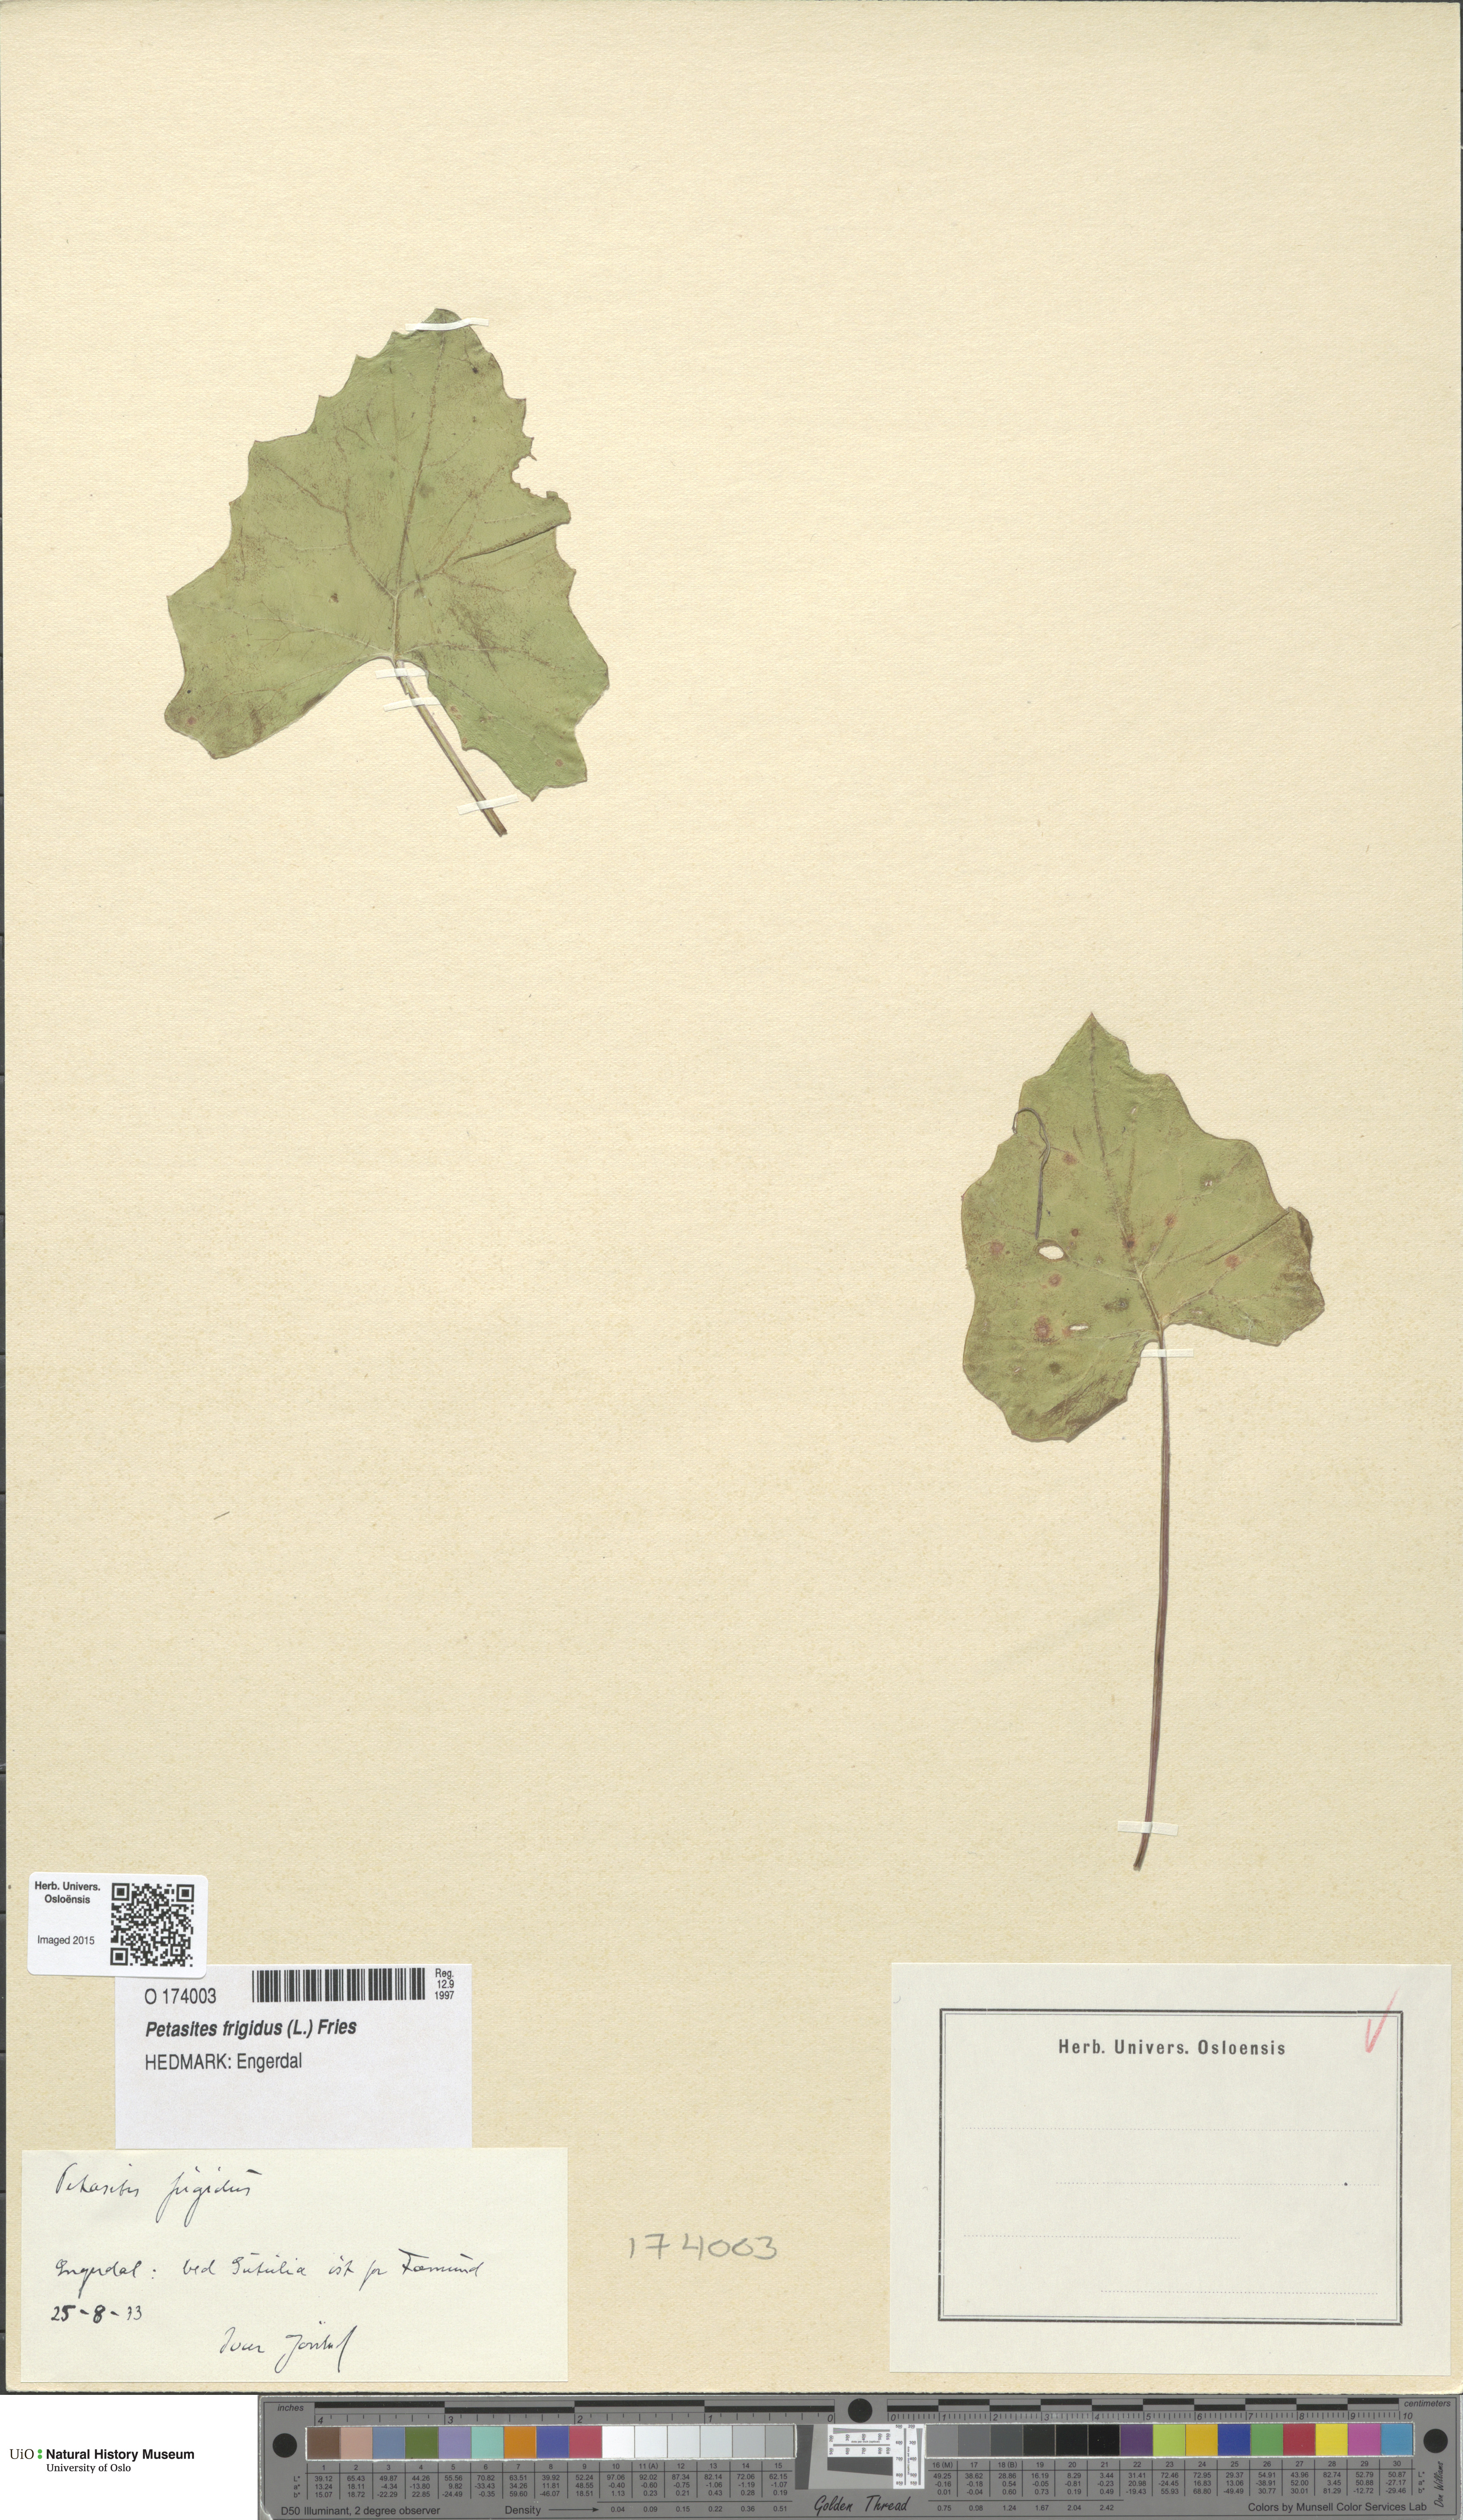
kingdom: Plantae
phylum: Tracheophyta
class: Magnoliopsida
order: Asterales
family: Asteraceae
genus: Petasites
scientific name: Petasites frigidus
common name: Arctic butterbur
